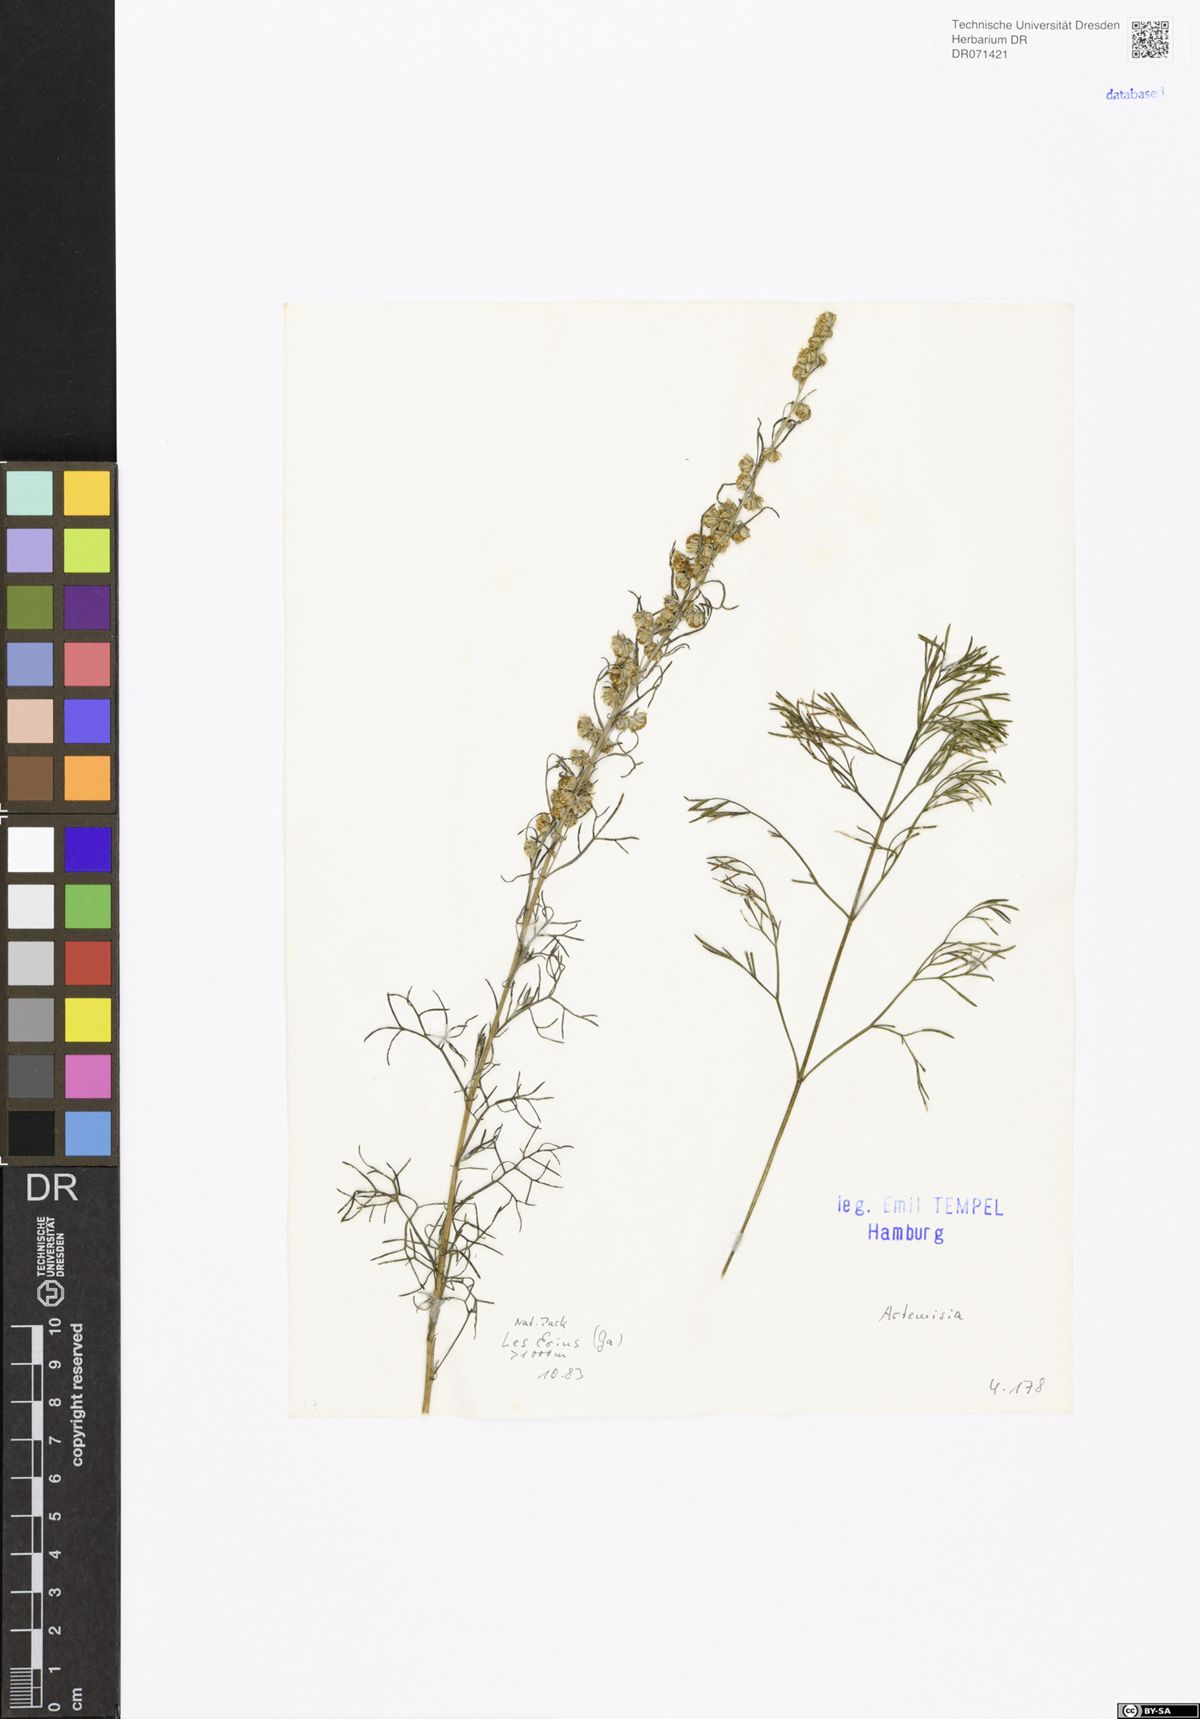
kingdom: Plantae
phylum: Tracheophyta
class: Magnoliopsida
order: Asterales
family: Asteraceae
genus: Artemisia
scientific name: Artemisia
